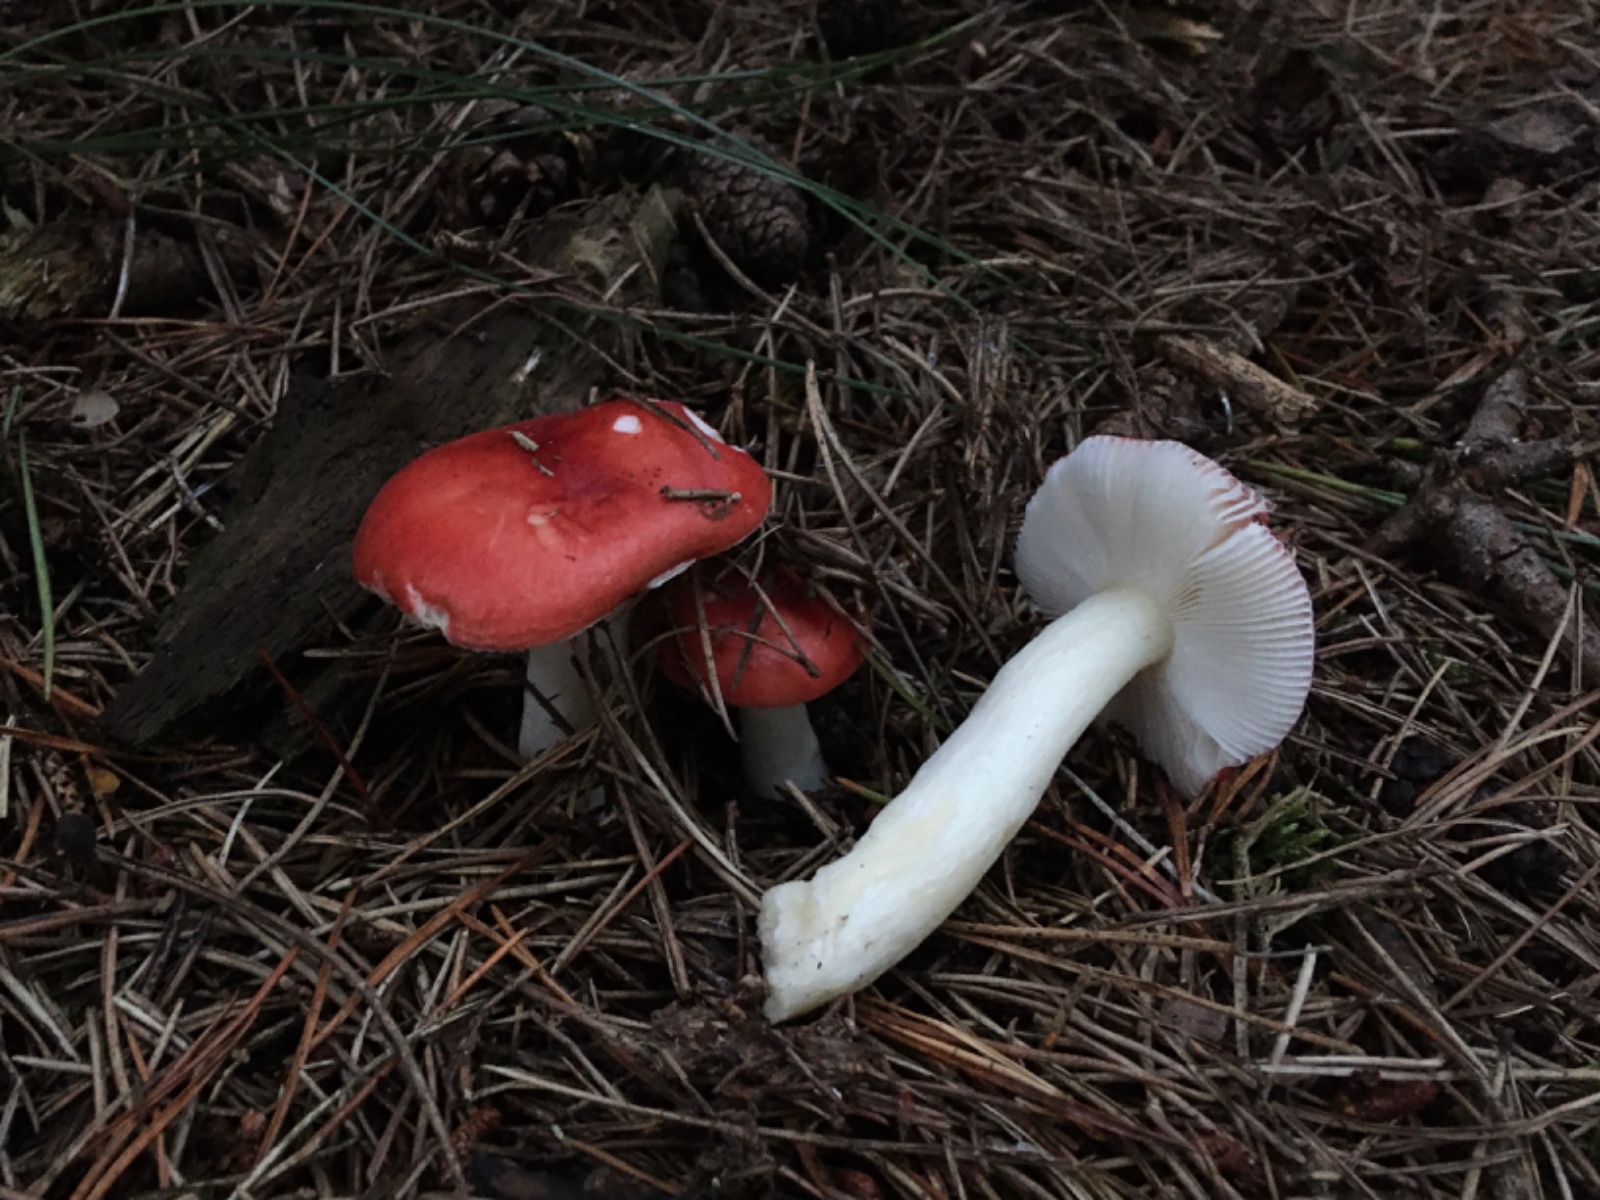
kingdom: Fungi
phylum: Basidiomycota
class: Agaricomycetes
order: Russulales
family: Russulaceae
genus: Russula
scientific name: Russula emetica
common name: stor gift-skørhat
